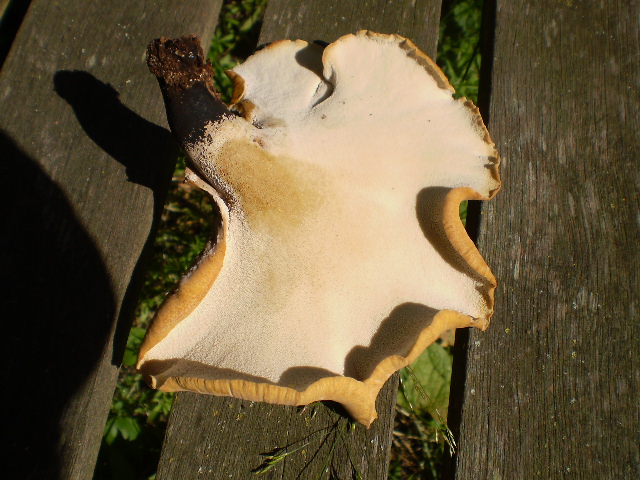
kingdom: Fungi
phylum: Basidiomycota
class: Agaricomycetes
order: Polyporales
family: Polyporaceae
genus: Cerioporus
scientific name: Cerioporus varius
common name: foranderlig stilkporesvamp
